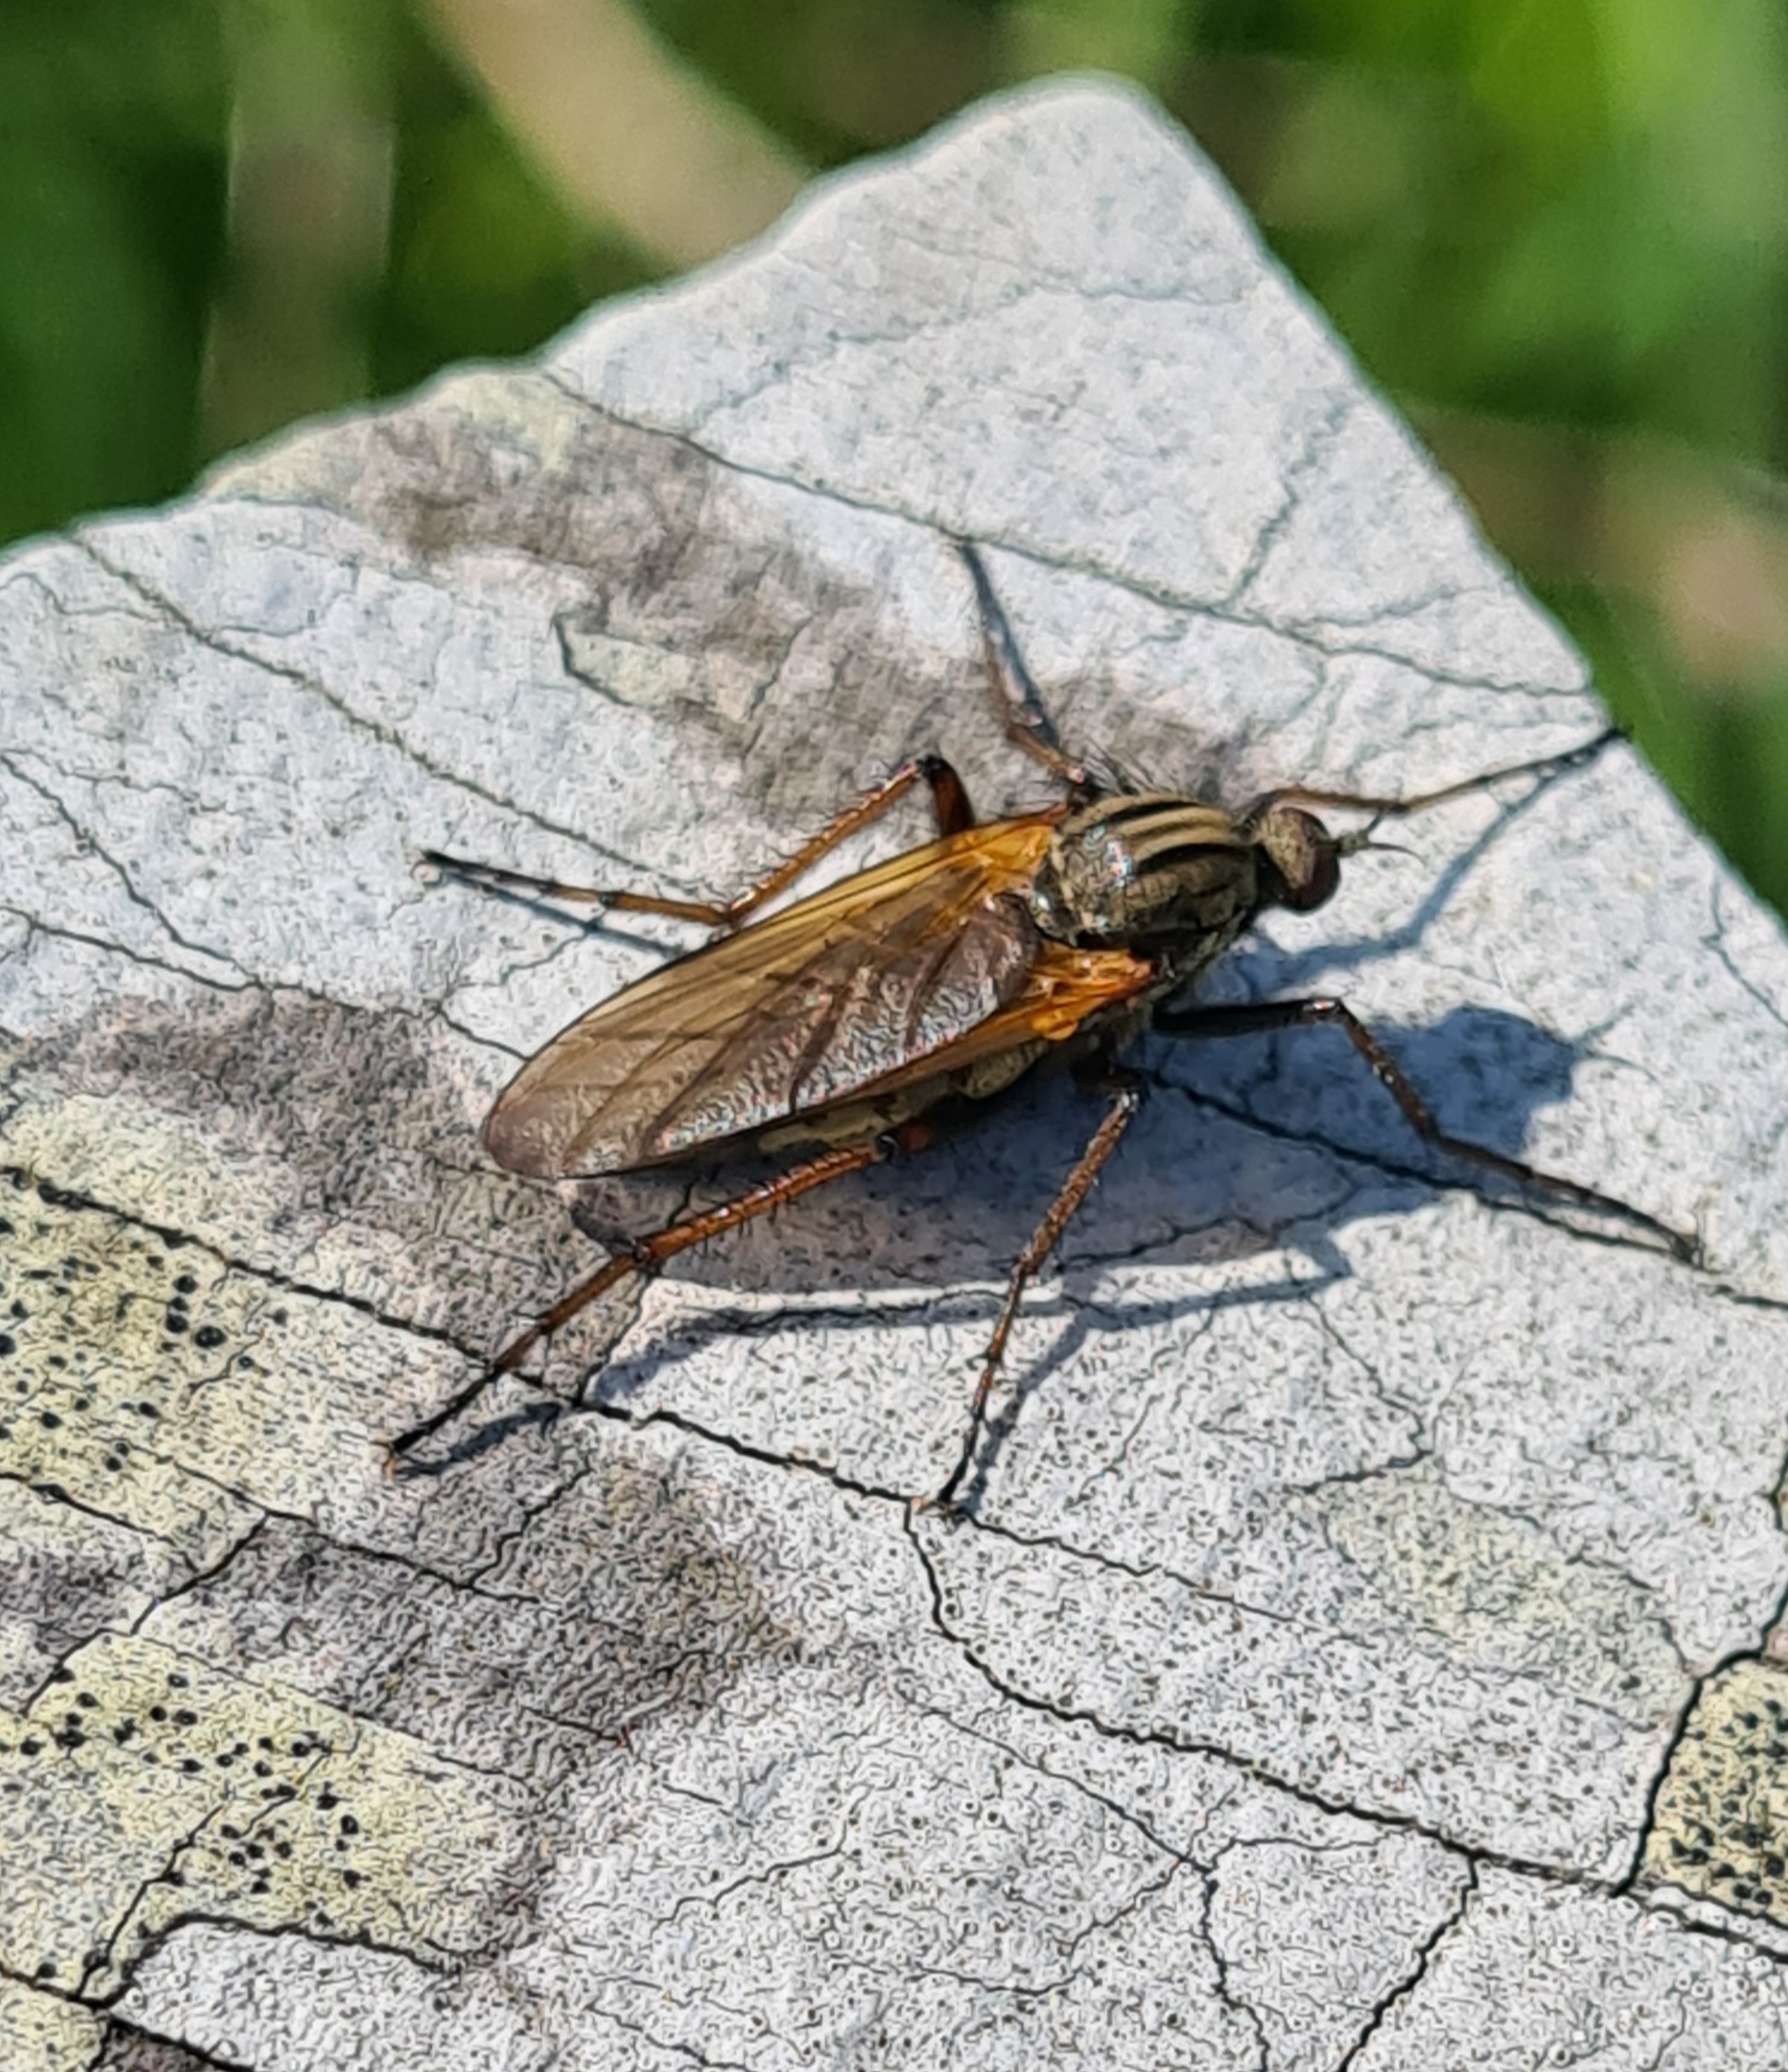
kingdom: Animalia
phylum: Arthropoda
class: Insecta
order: Diptera
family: Empididae
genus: Empis
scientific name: Empis tessellata
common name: Stor danseflue
